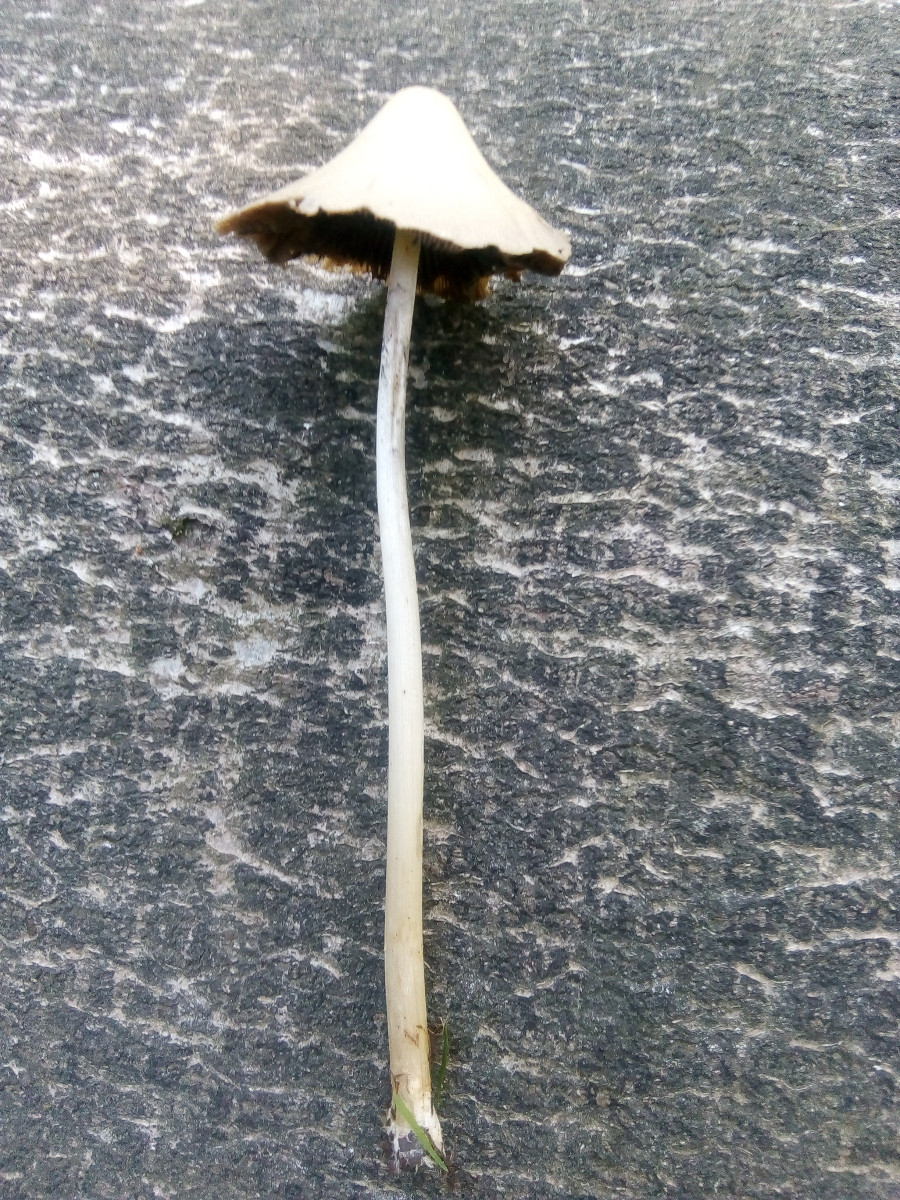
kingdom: Fungi
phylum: Basidiomycota
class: Agaricomycetes
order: Agaricales
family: Psathyrellaceae
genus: Parasola
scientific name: Parasola conopilea
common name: kegle-hjulhat
